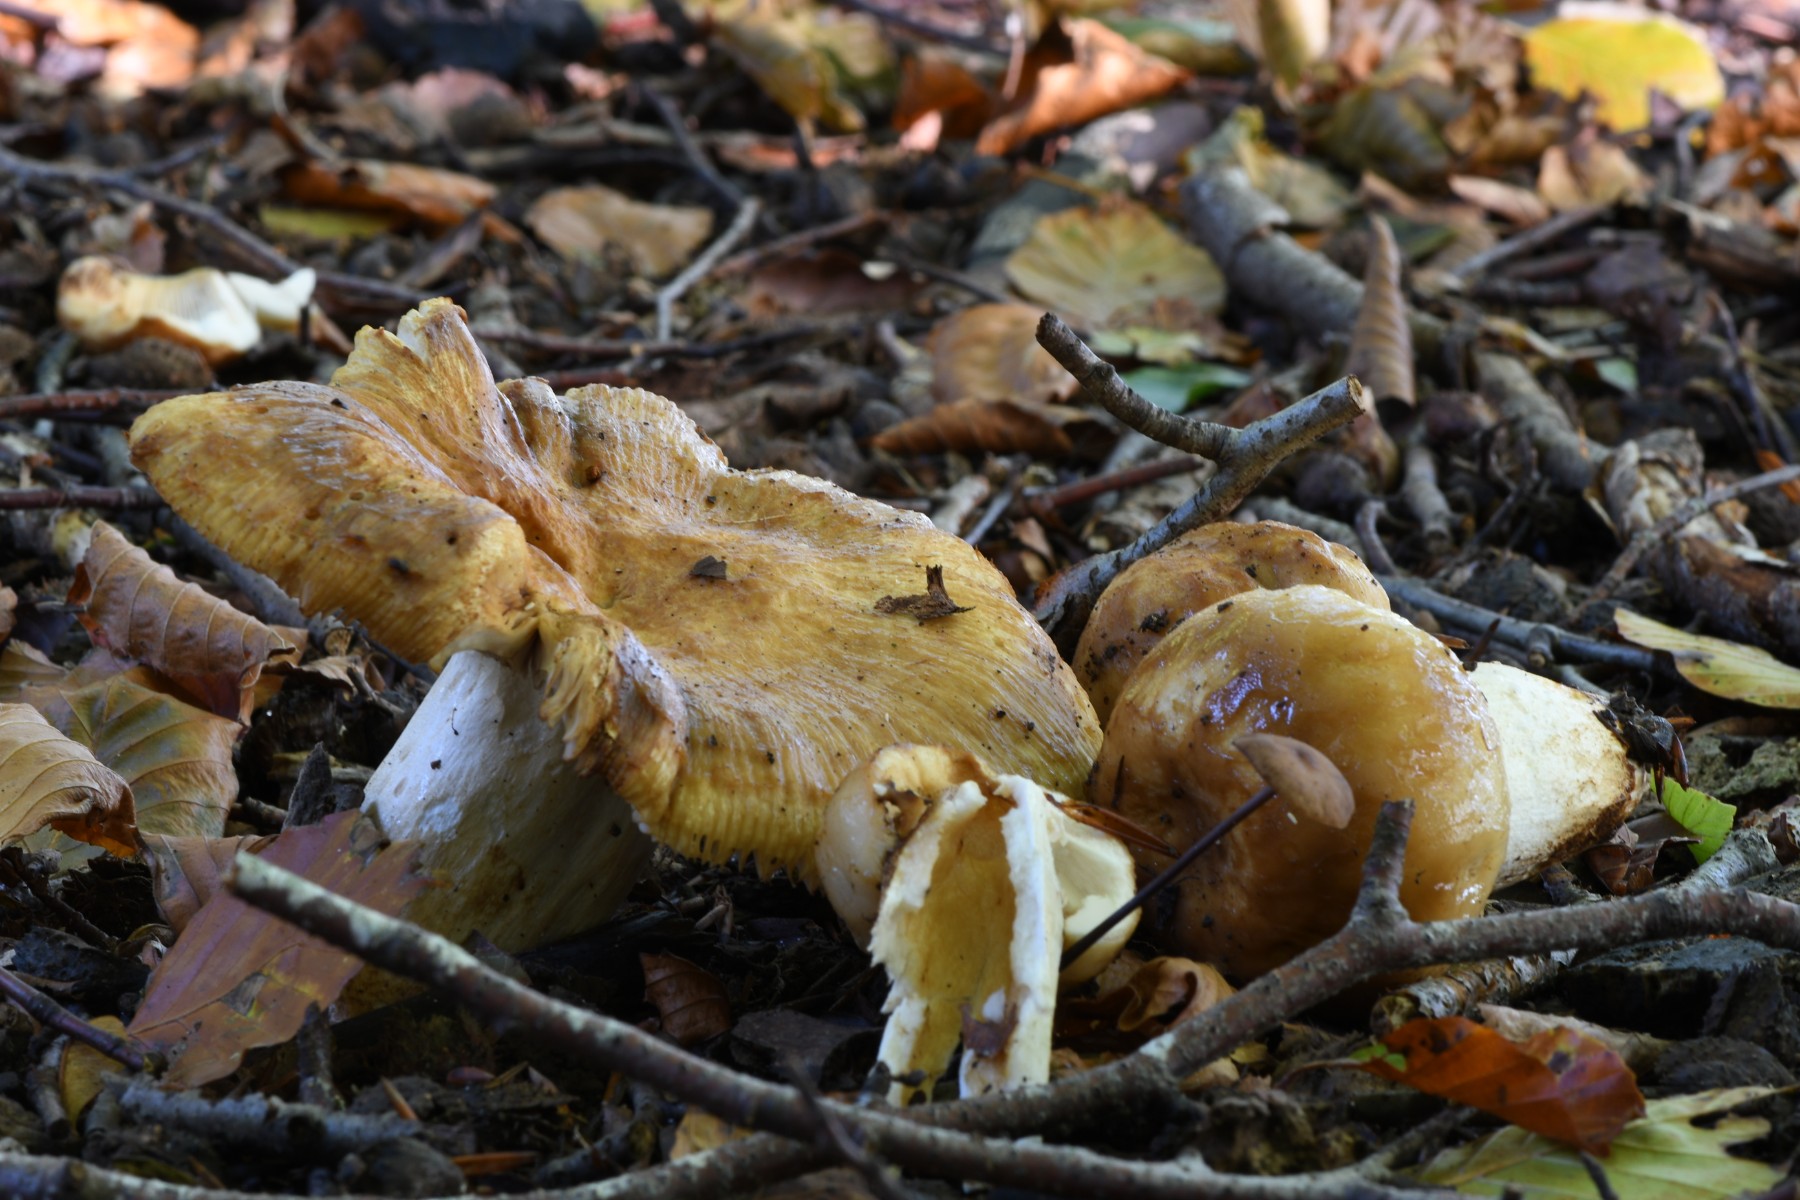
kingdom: Fungi
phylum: Basidiomycota
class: Agaricomycetes
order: Russulales
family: Russulaceae
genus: Russula
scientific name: Russula foetens
